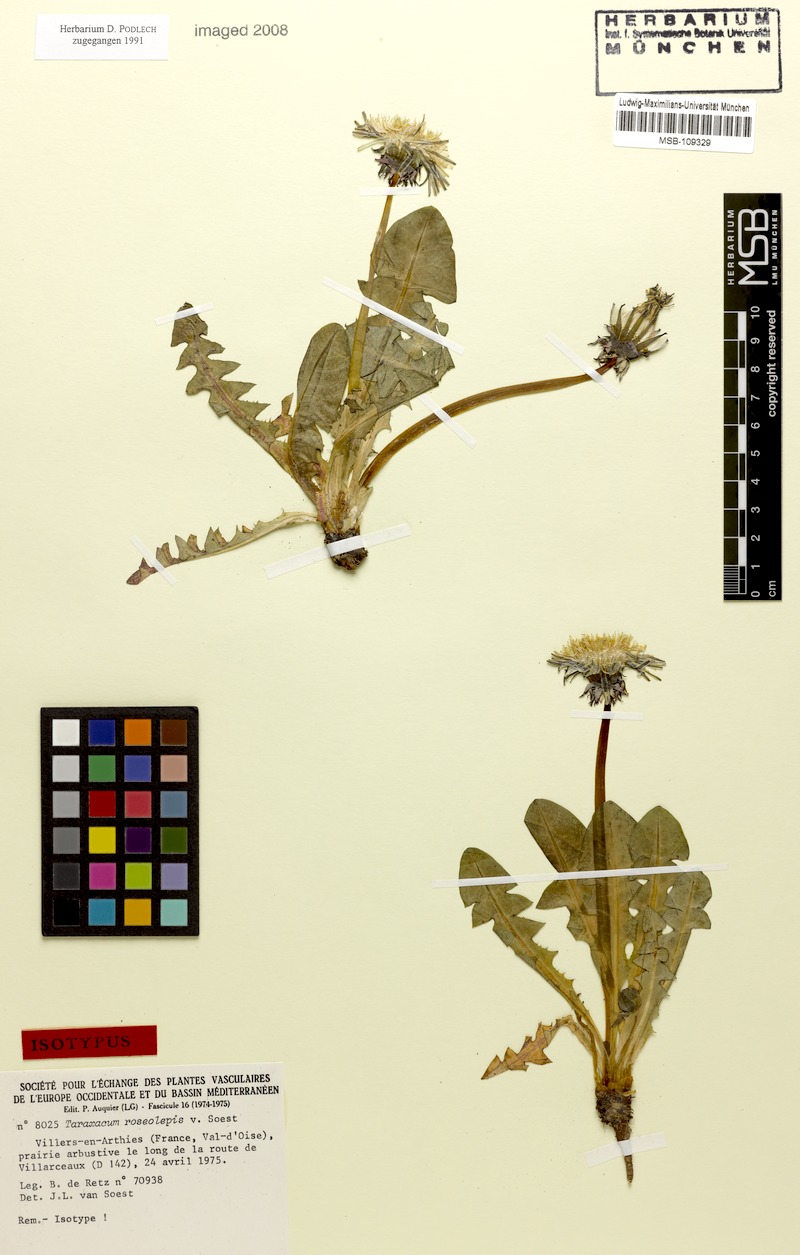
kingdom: Plantae
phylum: Tracheophyta
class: Magnoliopsida
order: Asterales
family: Asteraceae
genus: Taraxacum
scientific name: Taraxacum roseolepis
